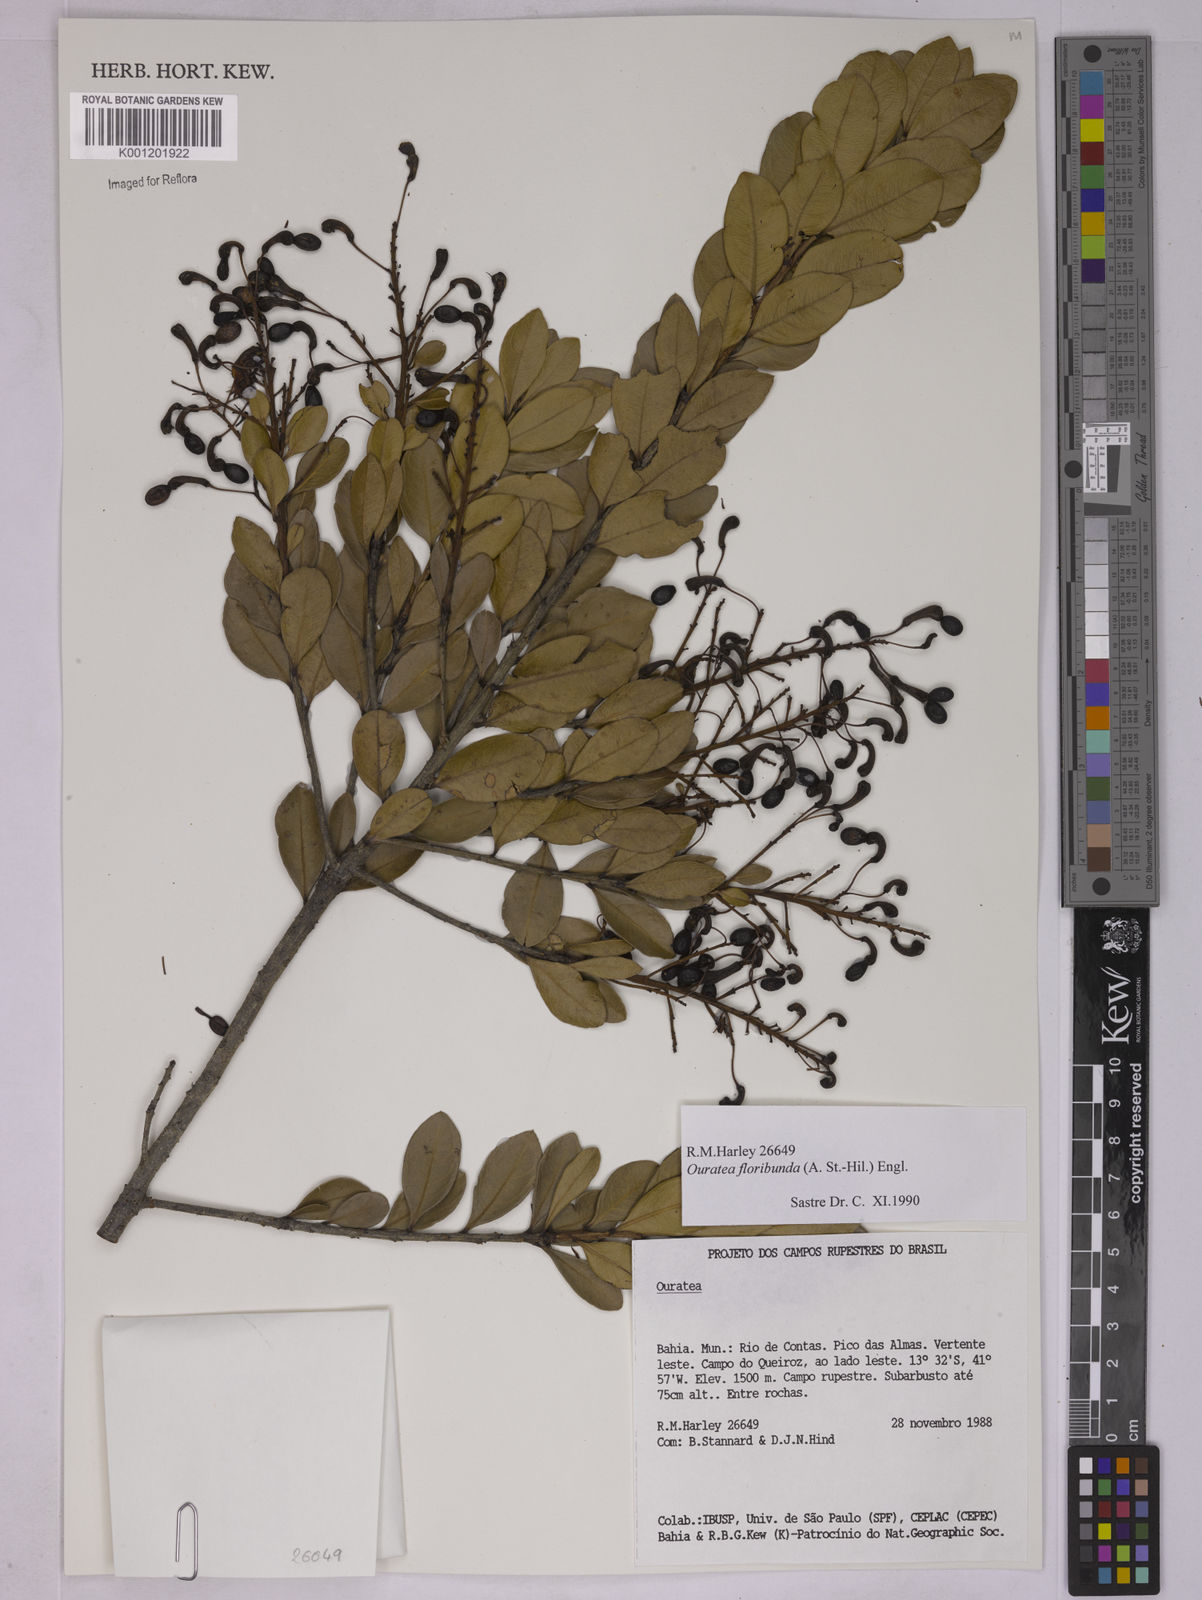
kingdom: Plantae
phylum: Tracheophyta
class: Magnoliopsida
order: Malpighiales
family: Ochnaceae
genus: Ouratea
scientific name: Ouratea floribunda
